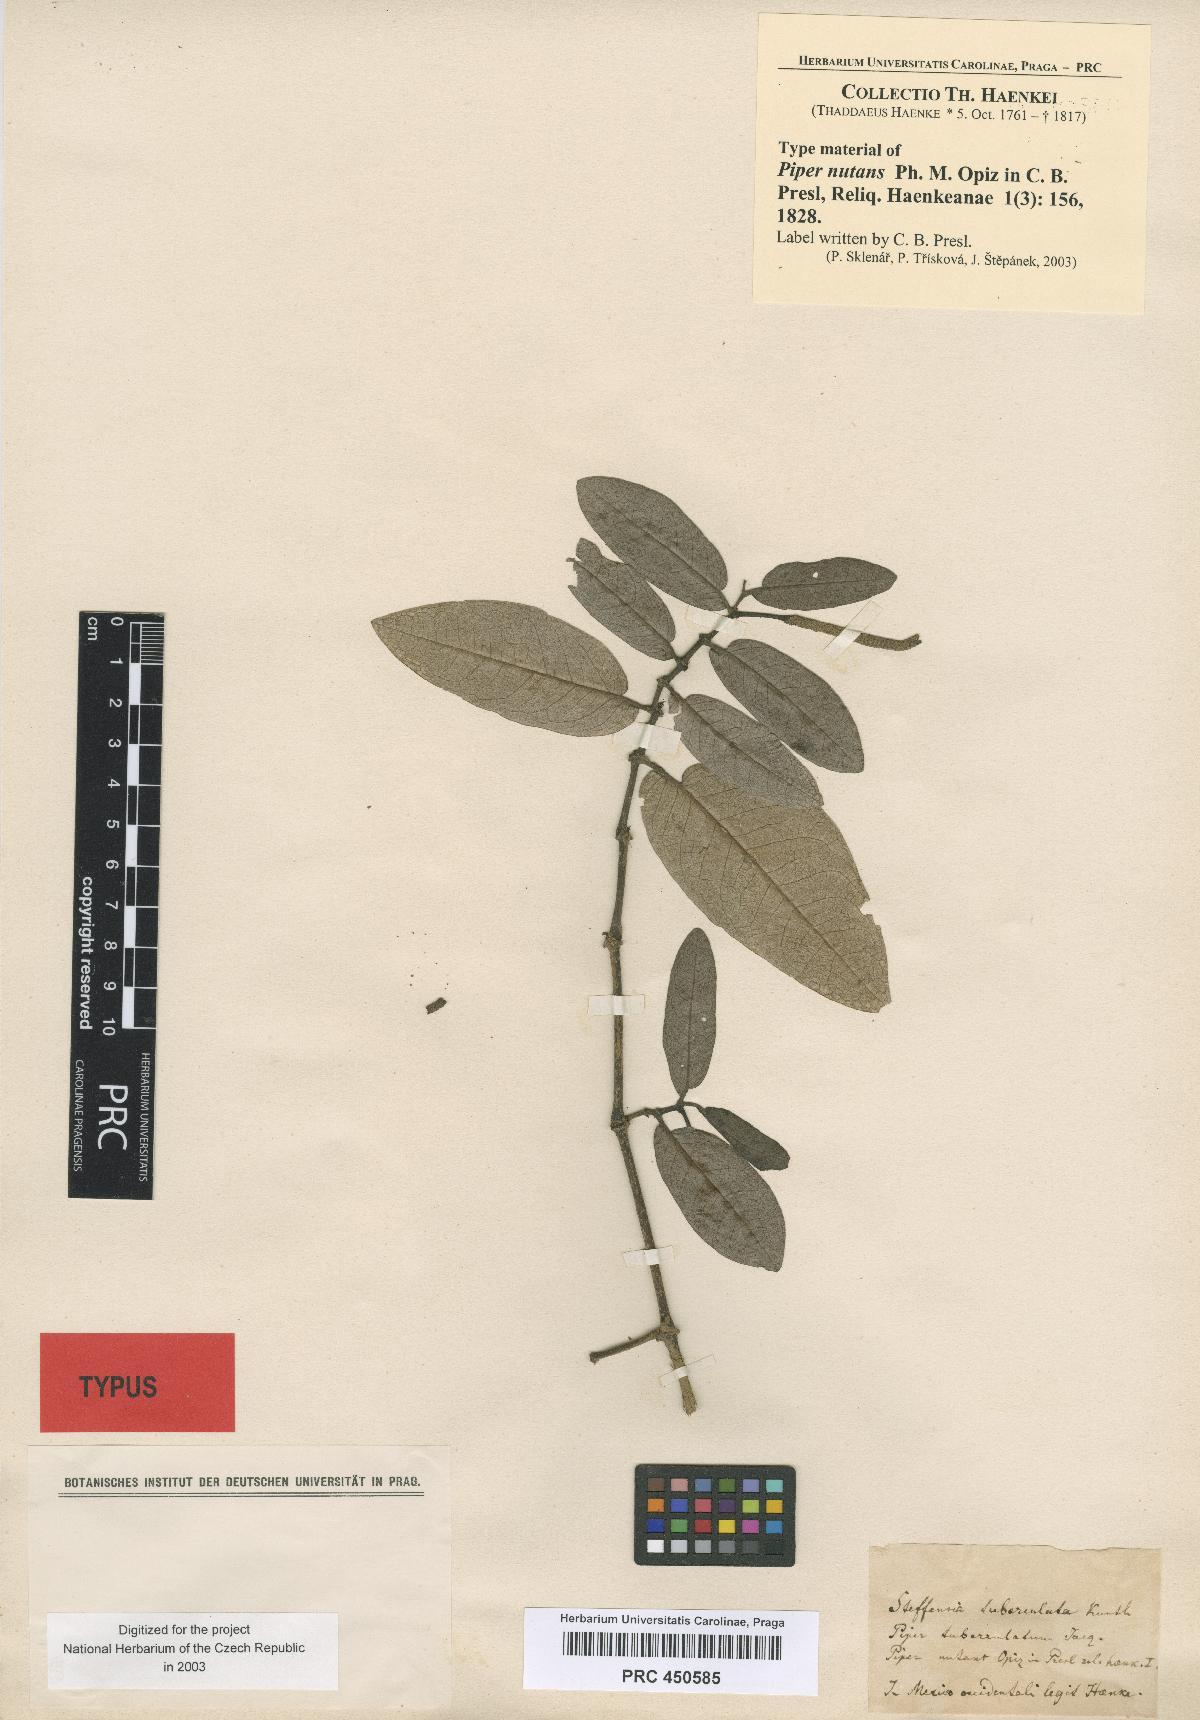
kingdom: Plantae
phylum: Tracheophyta
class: Magnoliopsida
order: Piperales
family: Piperaceae
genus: Piper
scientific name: Piper tuberculatum
